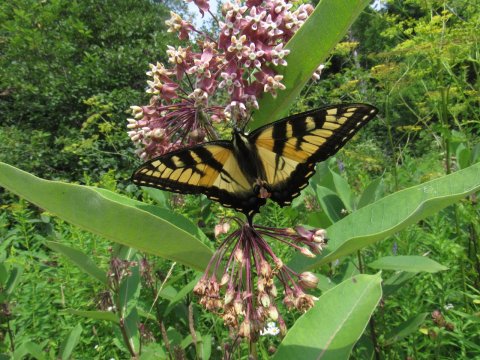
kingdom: Animalia
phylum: Arthropoda
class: Insecta
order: Lepidoptera
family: Papilionidae
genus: Pterourus
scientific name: Pterourus
